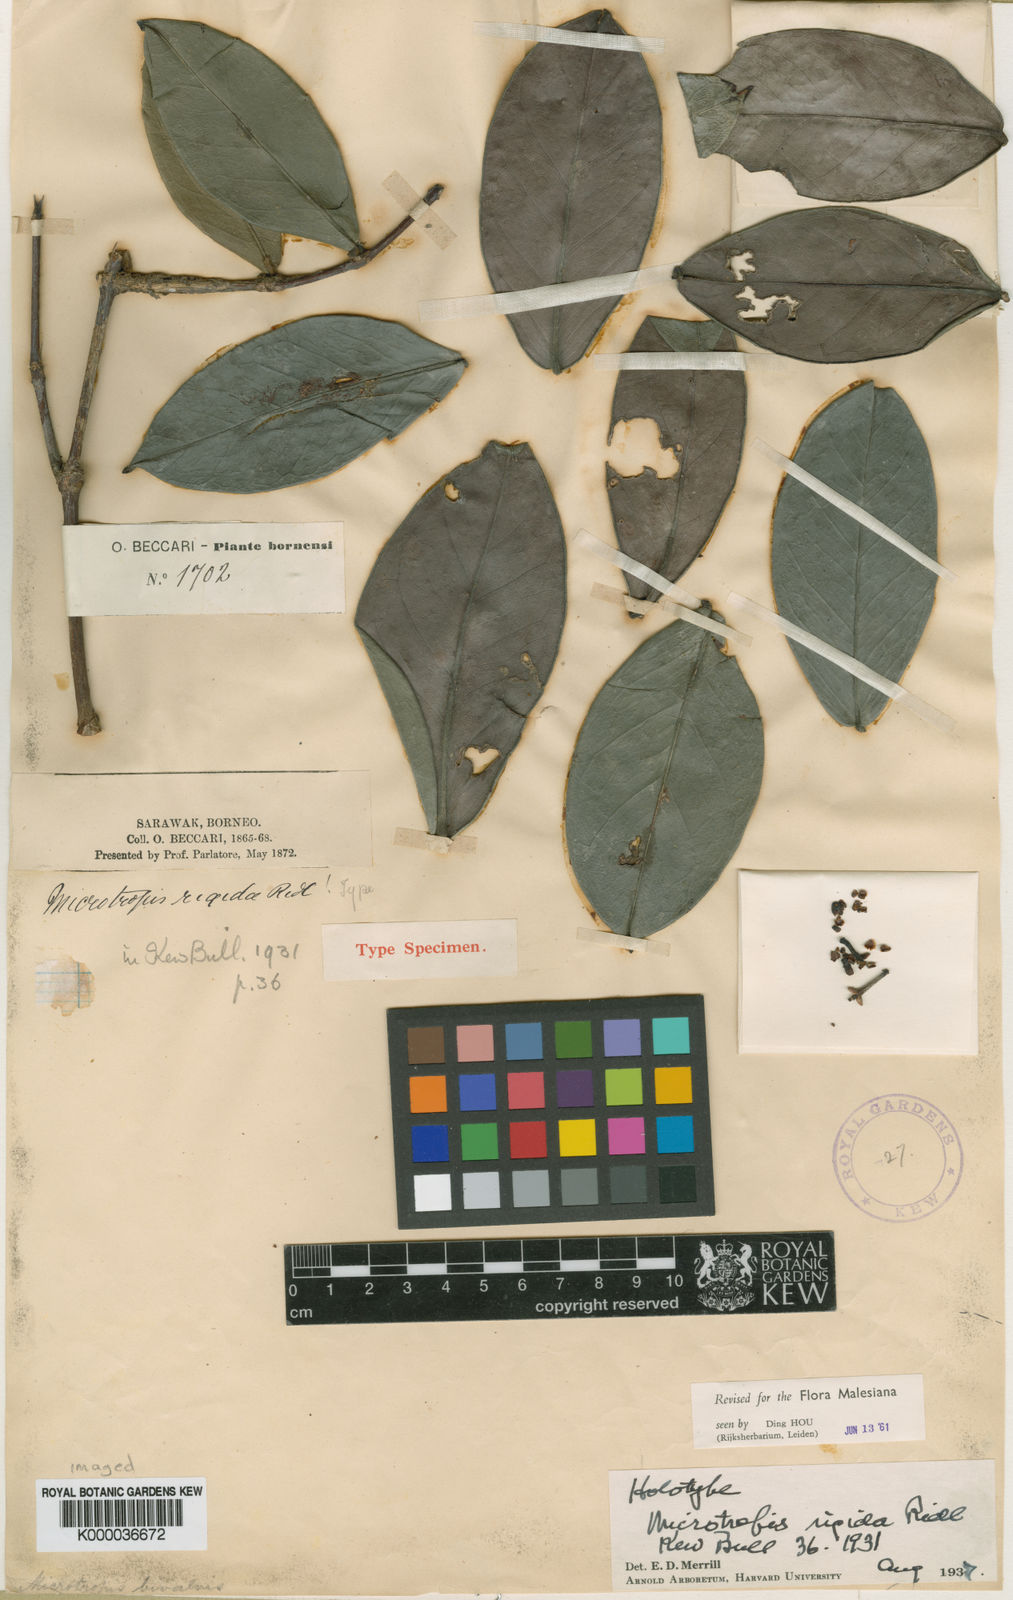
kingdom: Plantae
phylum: Tracheophyta
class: Magnoliopsida
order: Celastrales
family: Celastraceae
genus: Microtropis
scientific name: Microtropis rigida
